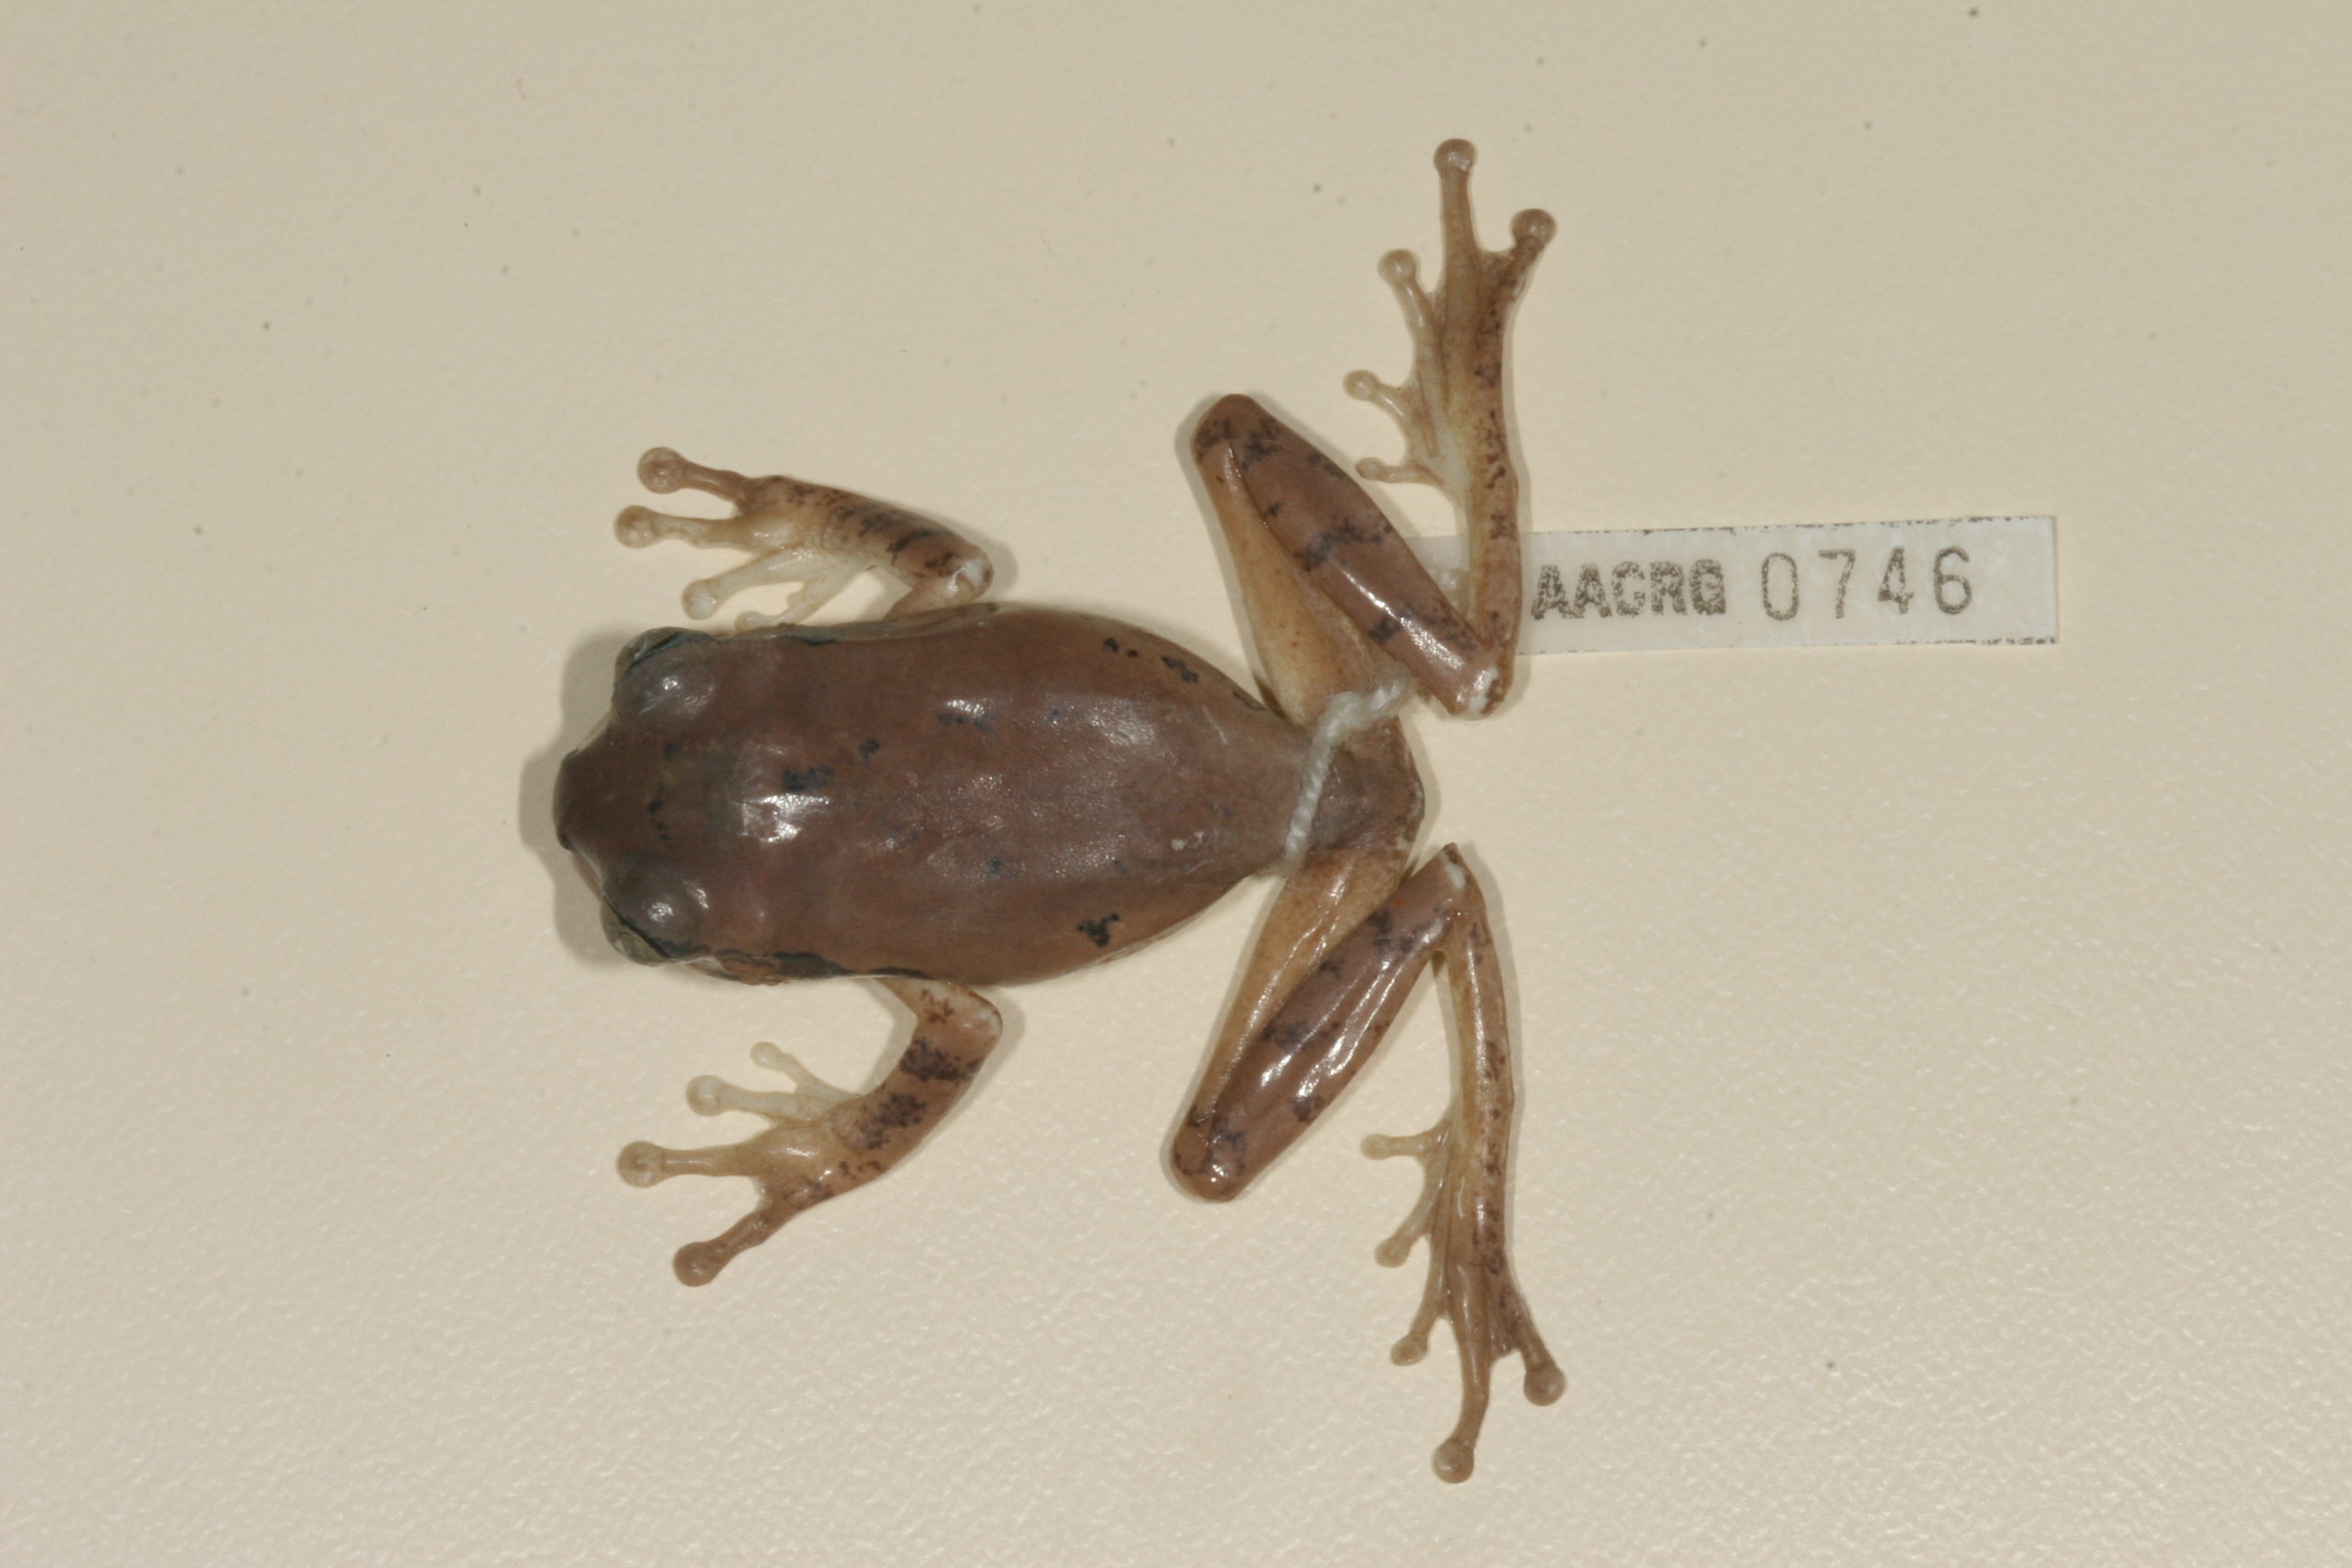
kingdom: Animalia
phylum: Chordata
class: Amphibia
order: Anura
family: Arthroleptidae
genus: Leptopelis
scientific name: Leptopelis natalensis
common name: Natal tree frog
